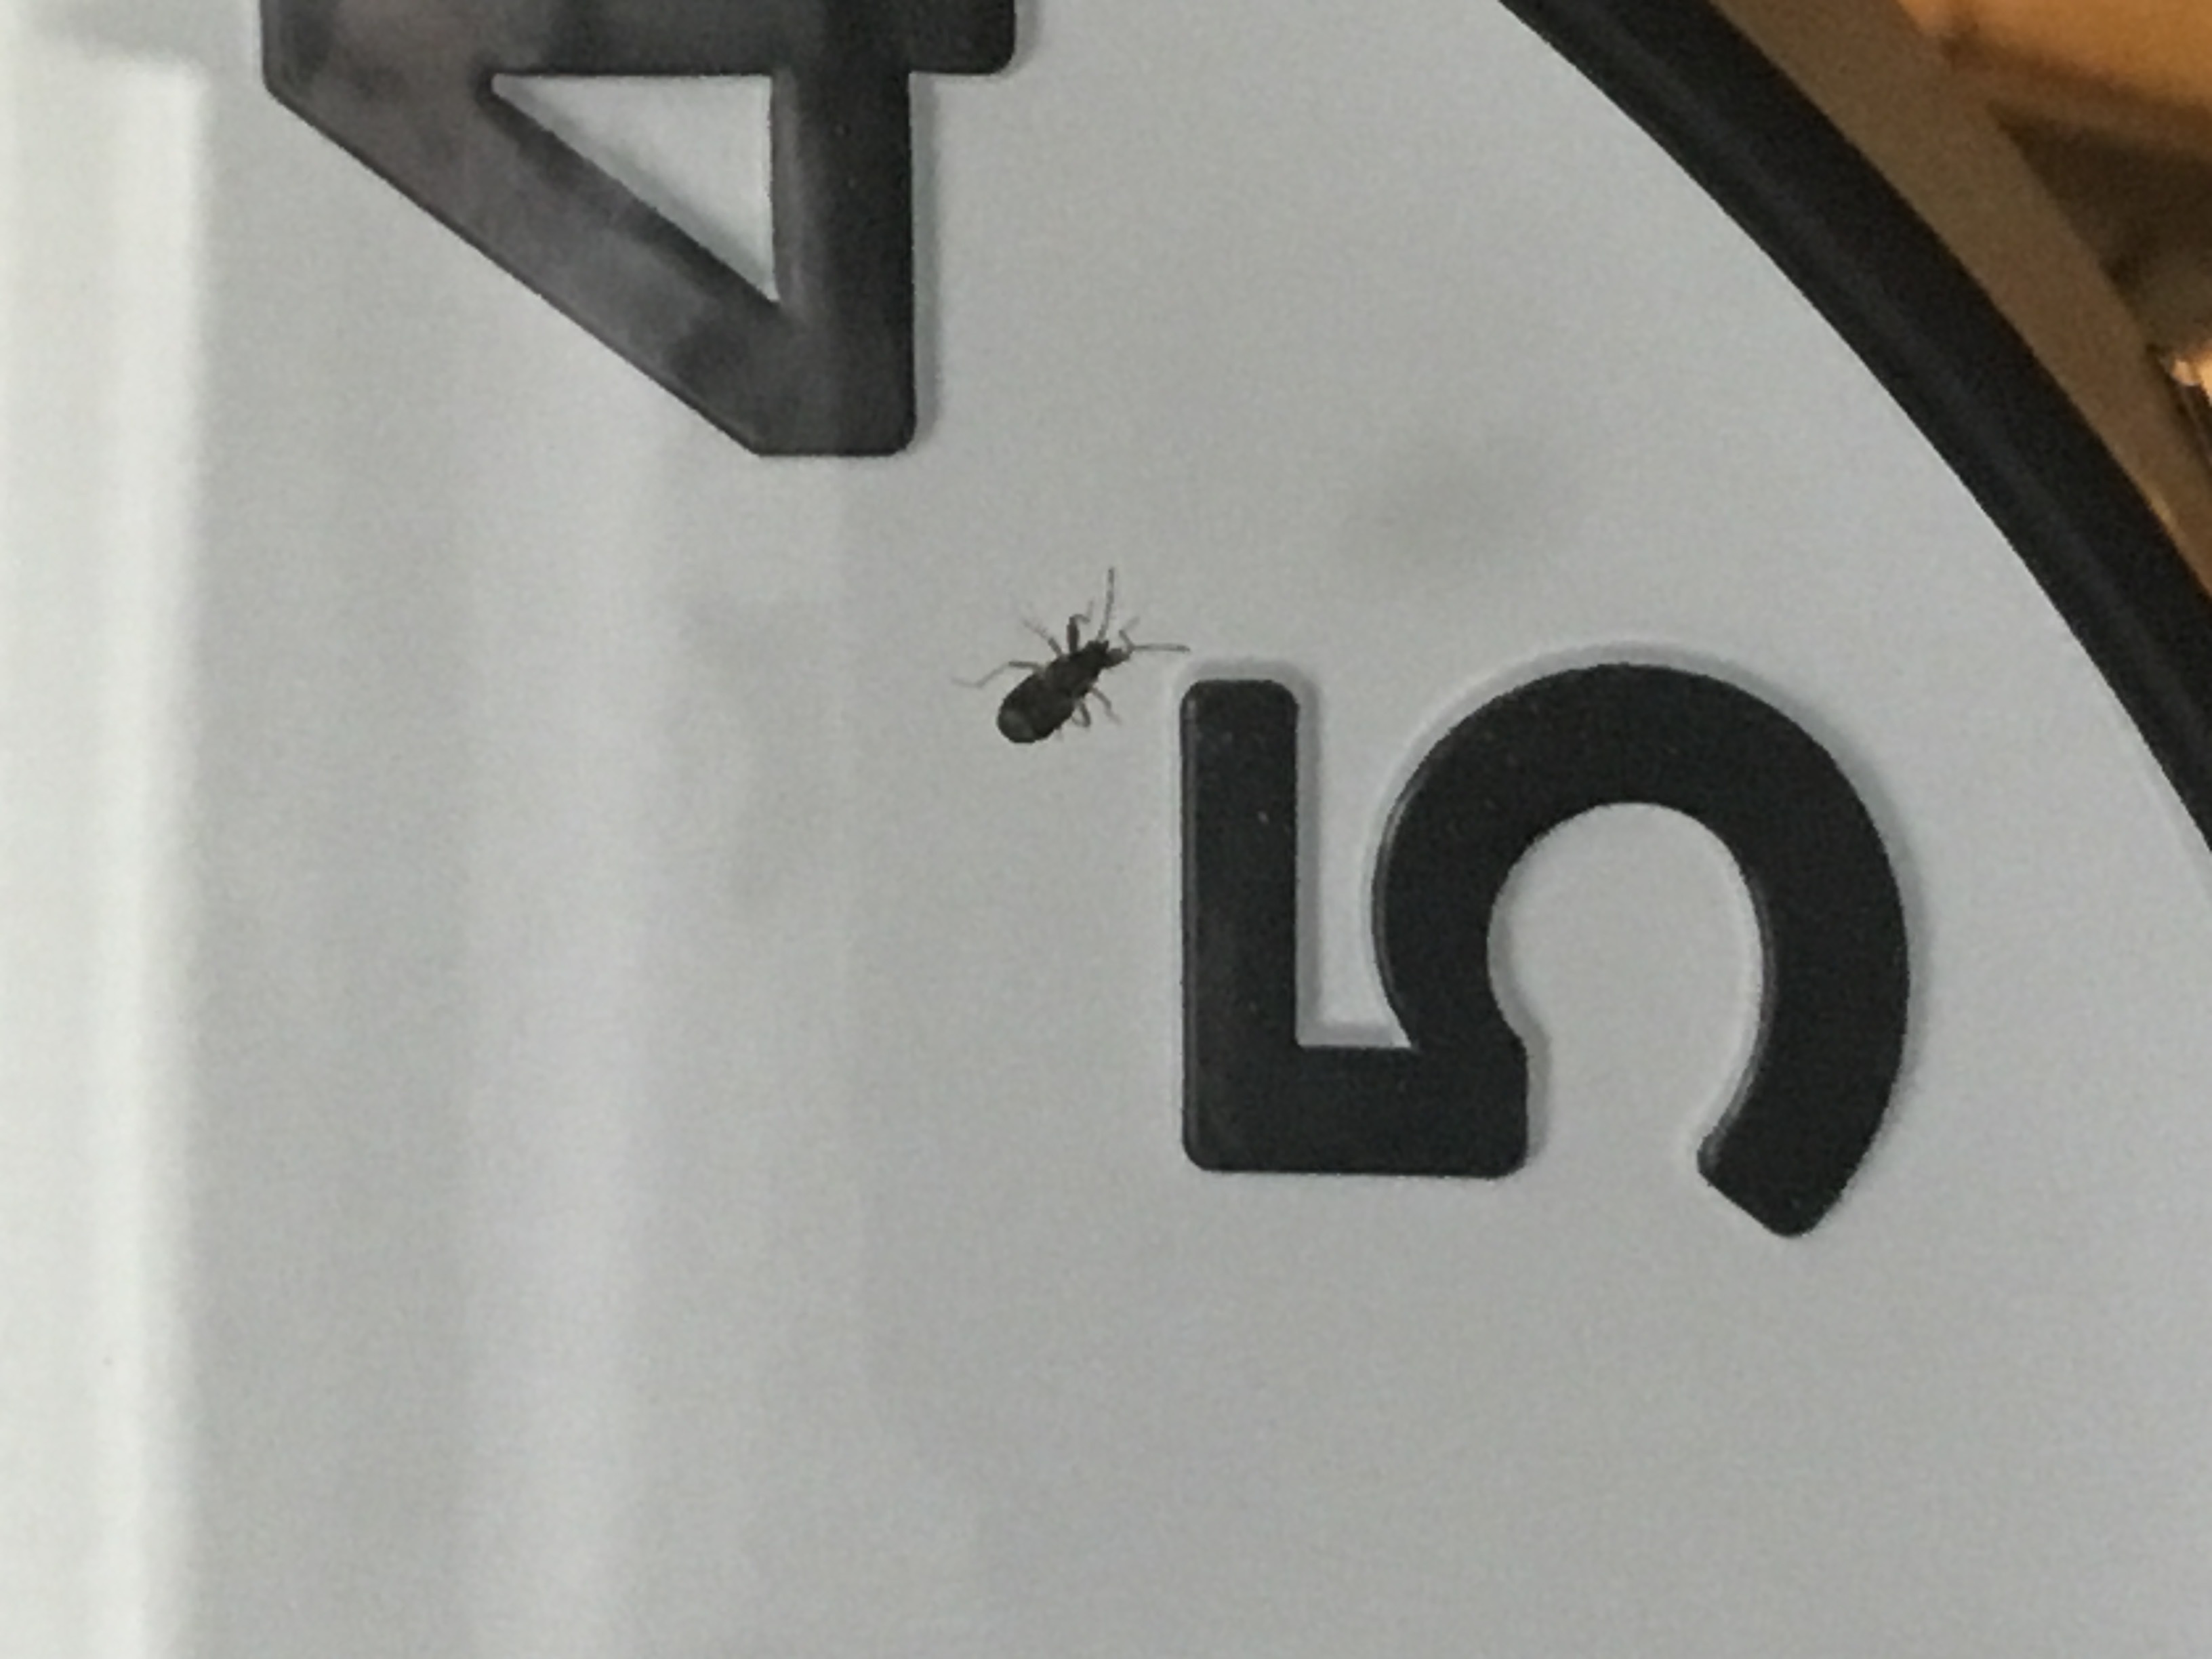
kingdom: Animalia
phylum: Arthropoda
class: Insecta
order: Hemiptera
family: Rhyparochromidae
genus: Drymus
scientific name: Drymus brunneus
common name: Seed bug
